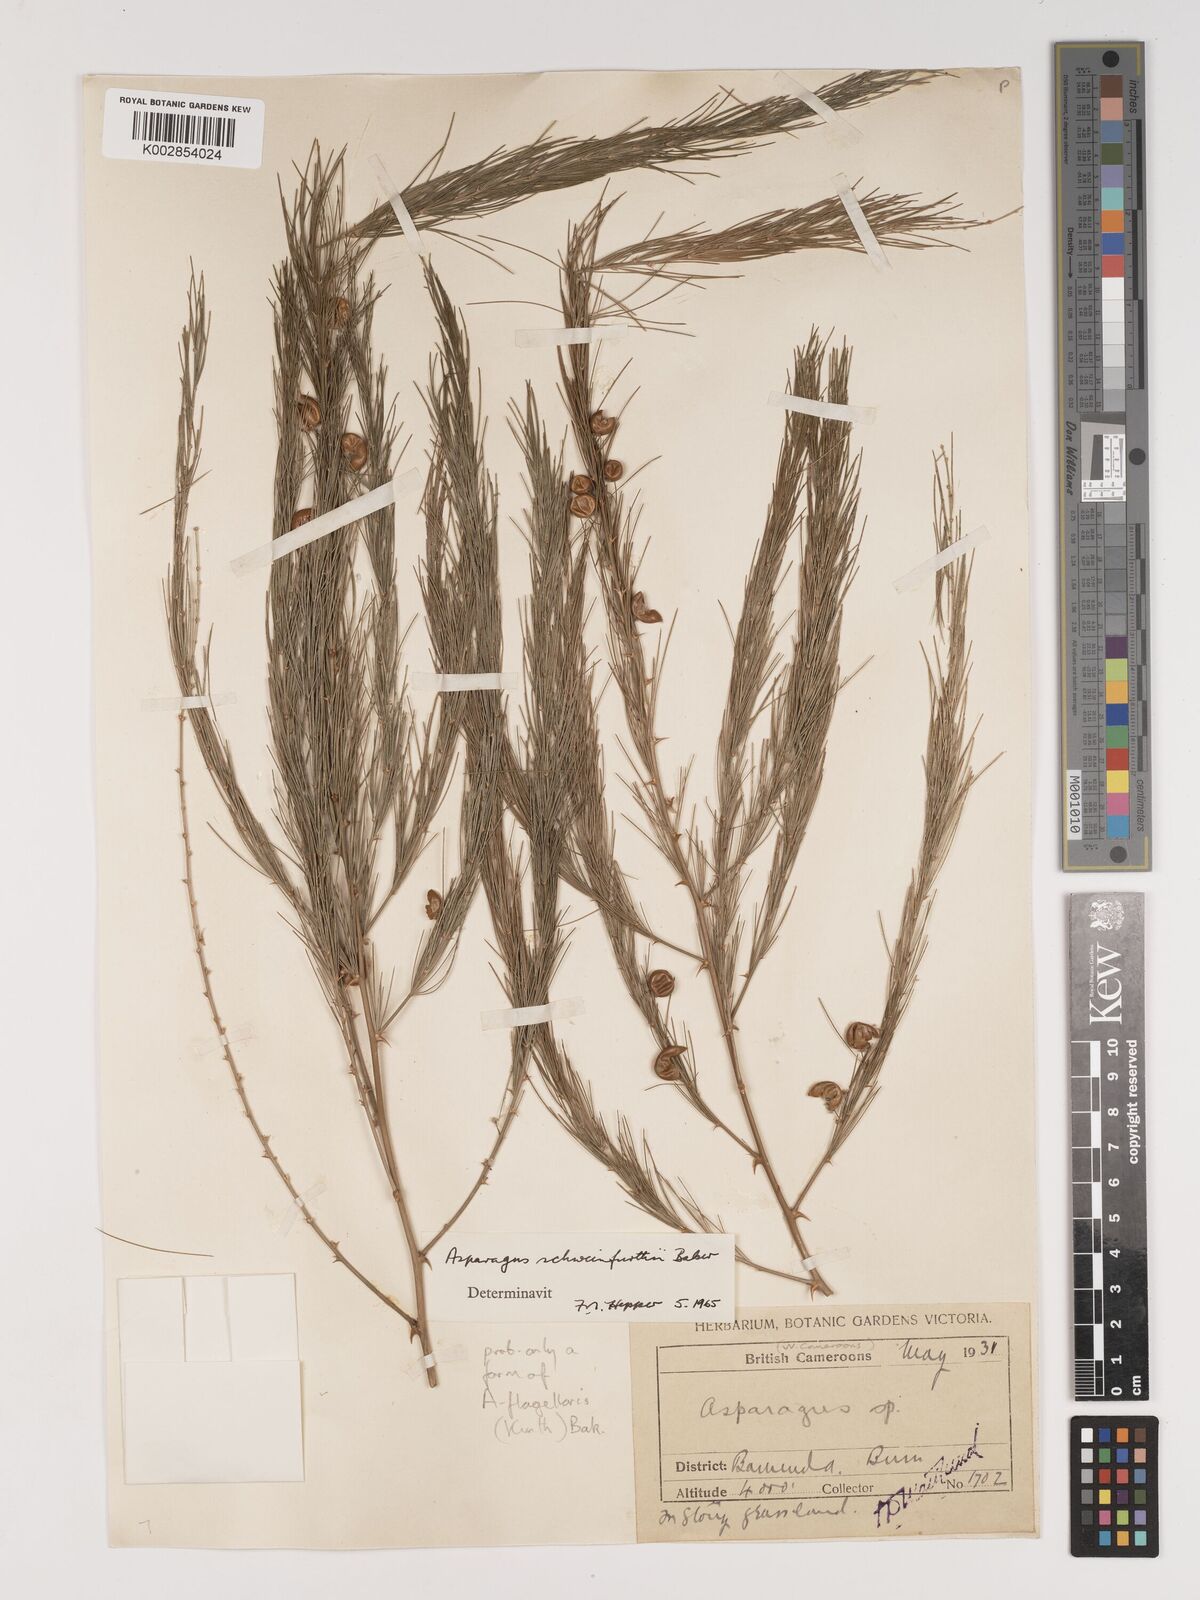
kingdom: Plantae
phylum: Tracheophyta
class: Liliopsida
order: Asparagales
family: Asparagaceae
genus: Asparagus
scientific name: Asparagus flagellaris
